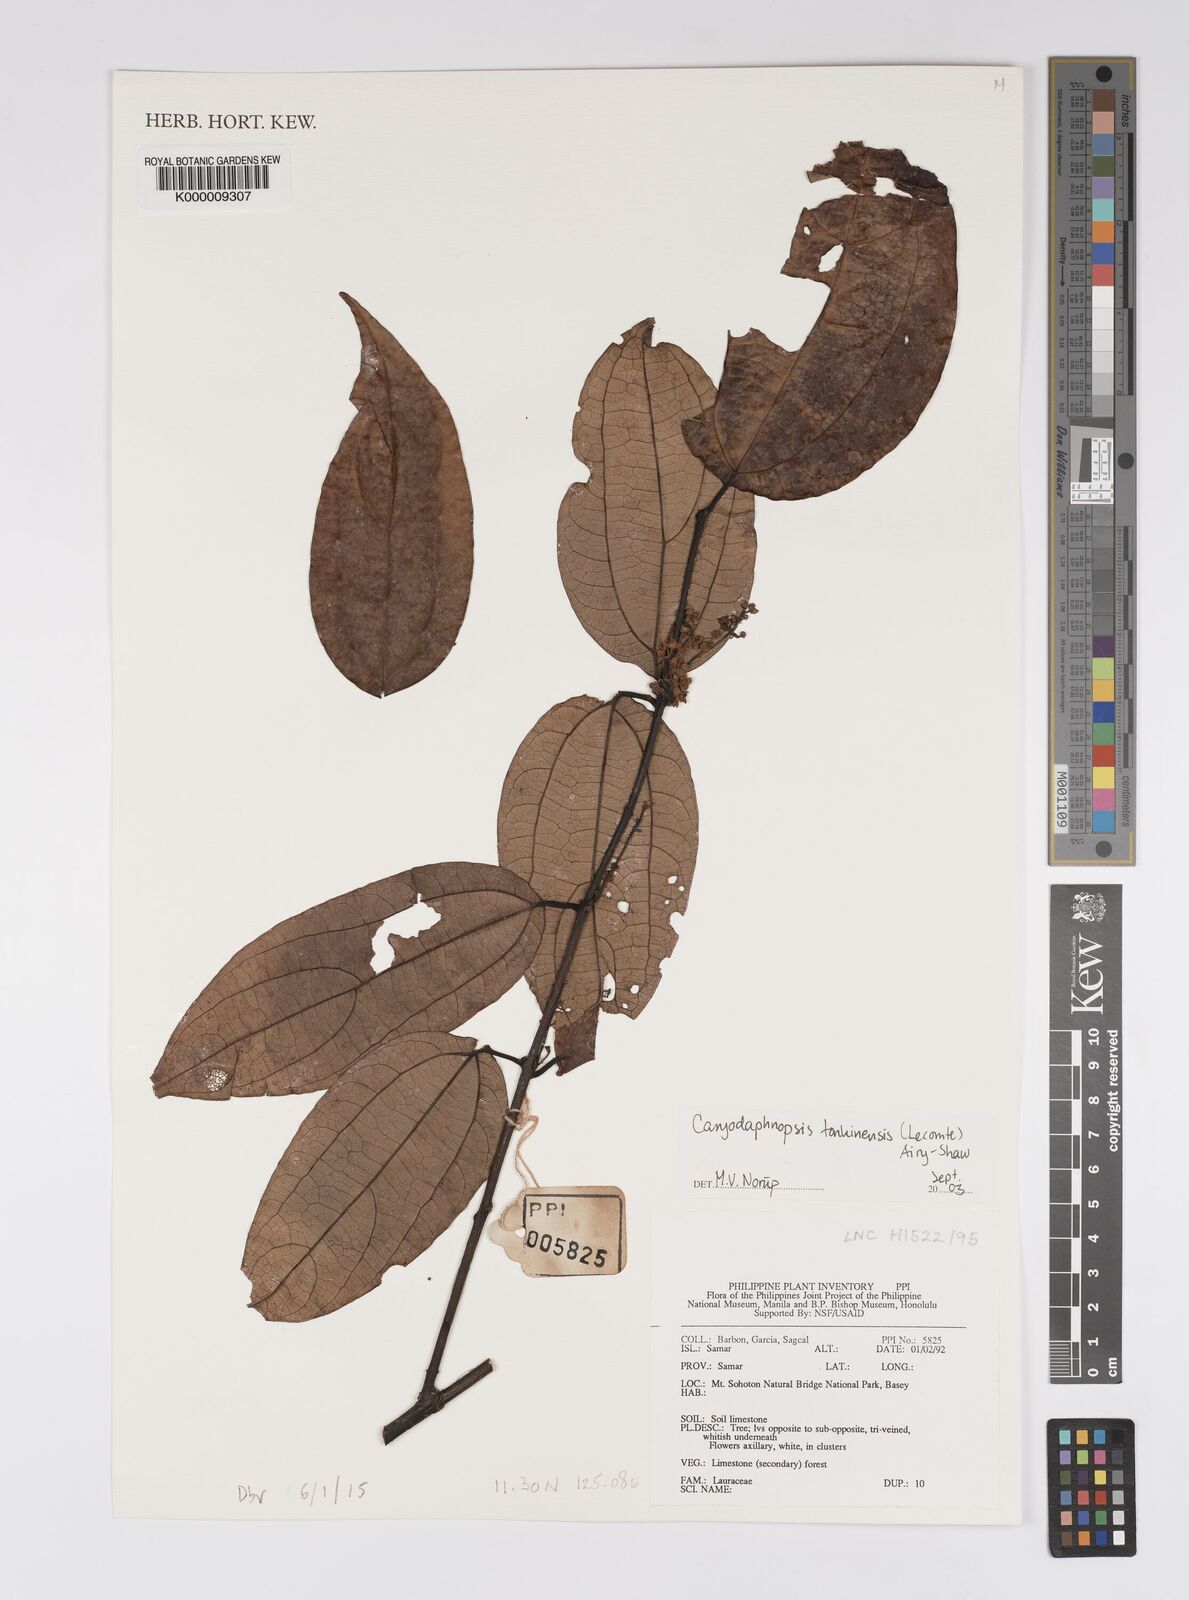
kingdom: Plantae
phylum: Tracheophyta
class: Magnoliopsida
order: Laurales
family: Lauraceae
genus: Caryodaphnopsis
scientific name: Caryodaphnopsis tonkinensis
